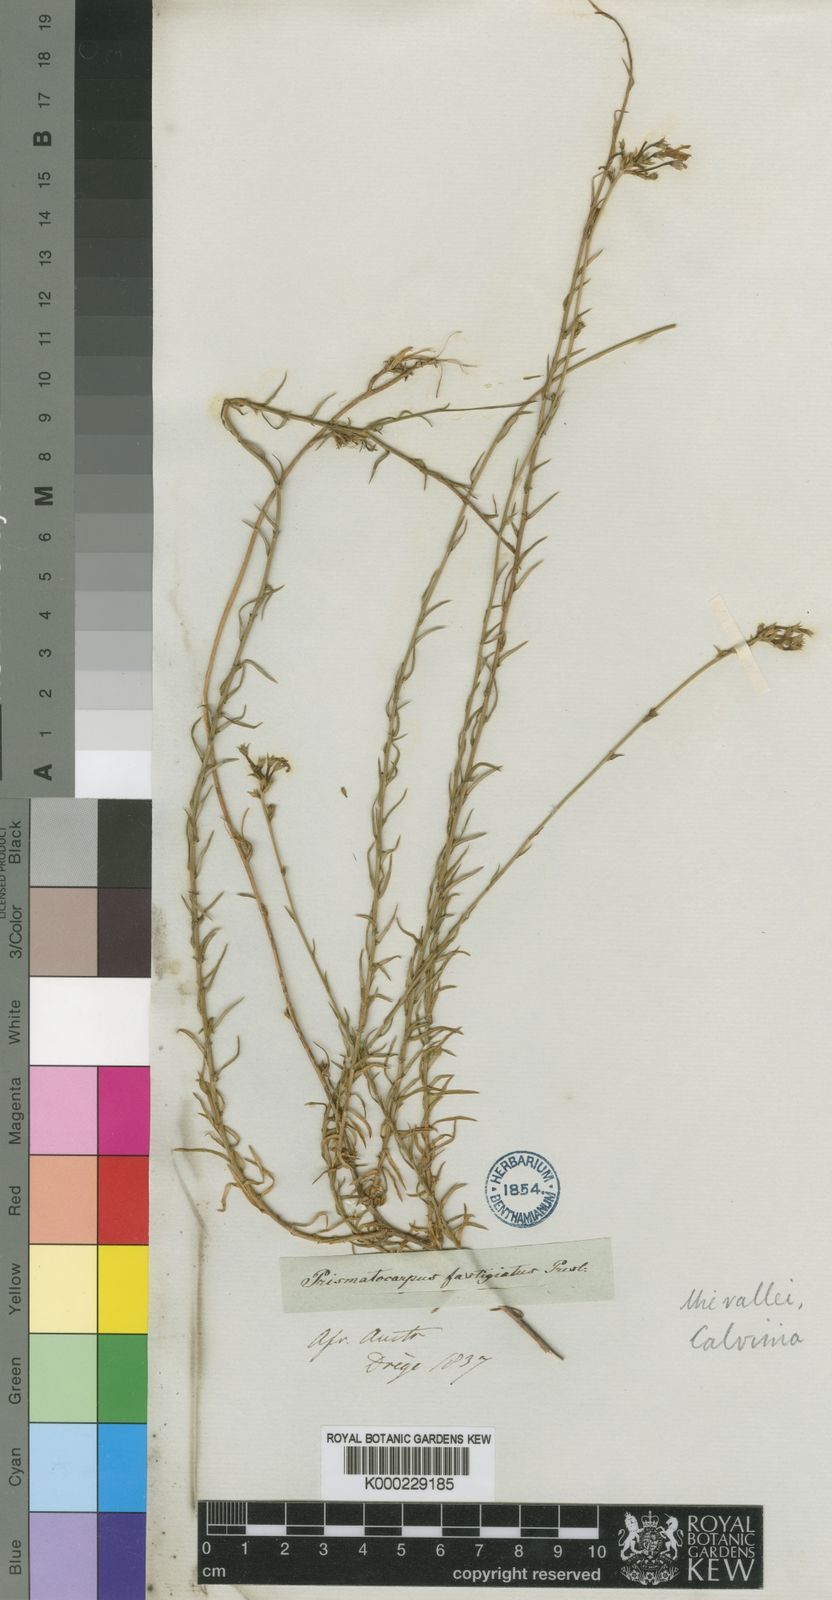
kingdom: Plantae
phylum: Tracheophyta
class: Magnoliopsida
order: Asterales
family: Campanulaceae
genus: Prismatocarpus
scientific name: Prismatocarpus fastigiatus
